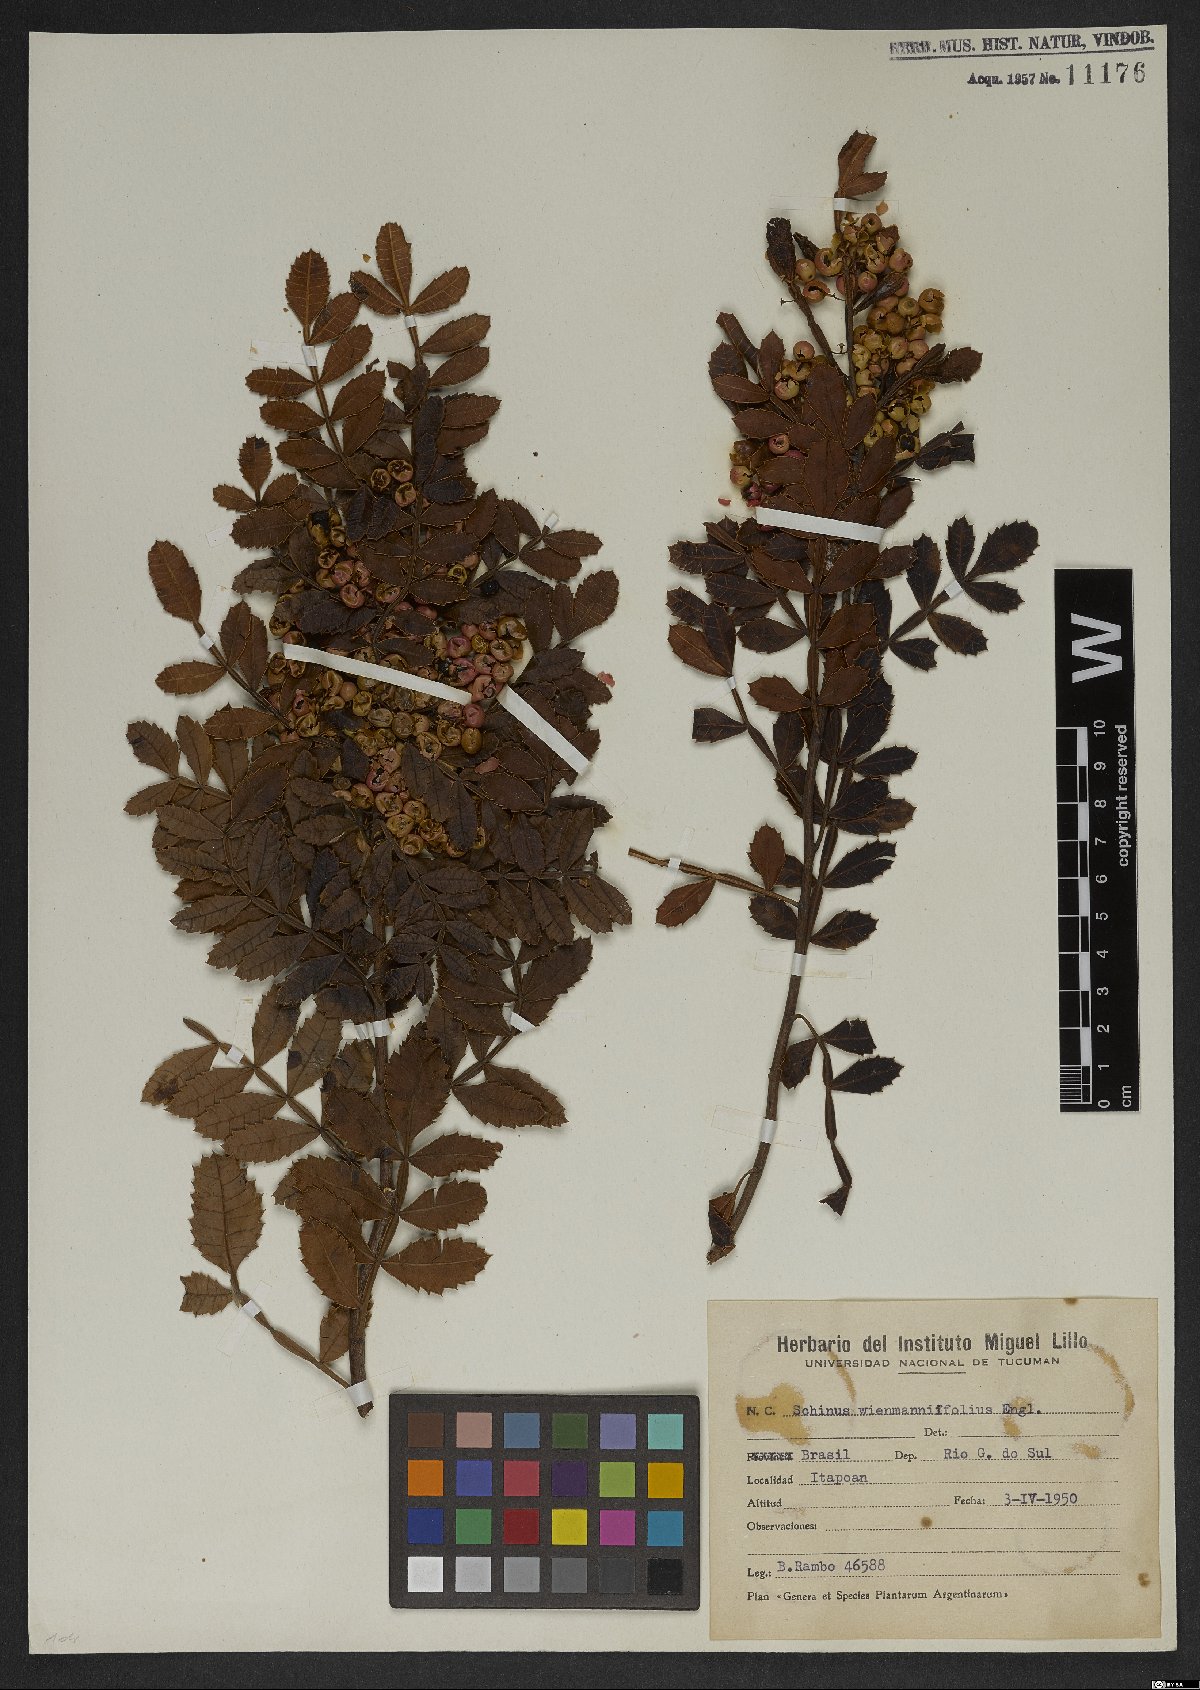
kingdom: Plantae
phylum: Tracheophyta
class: Magnoliopsida
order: Sapindales
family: Rutaceae
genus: Zanthoxylum
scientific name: Zanthoxylum rhoifolium
